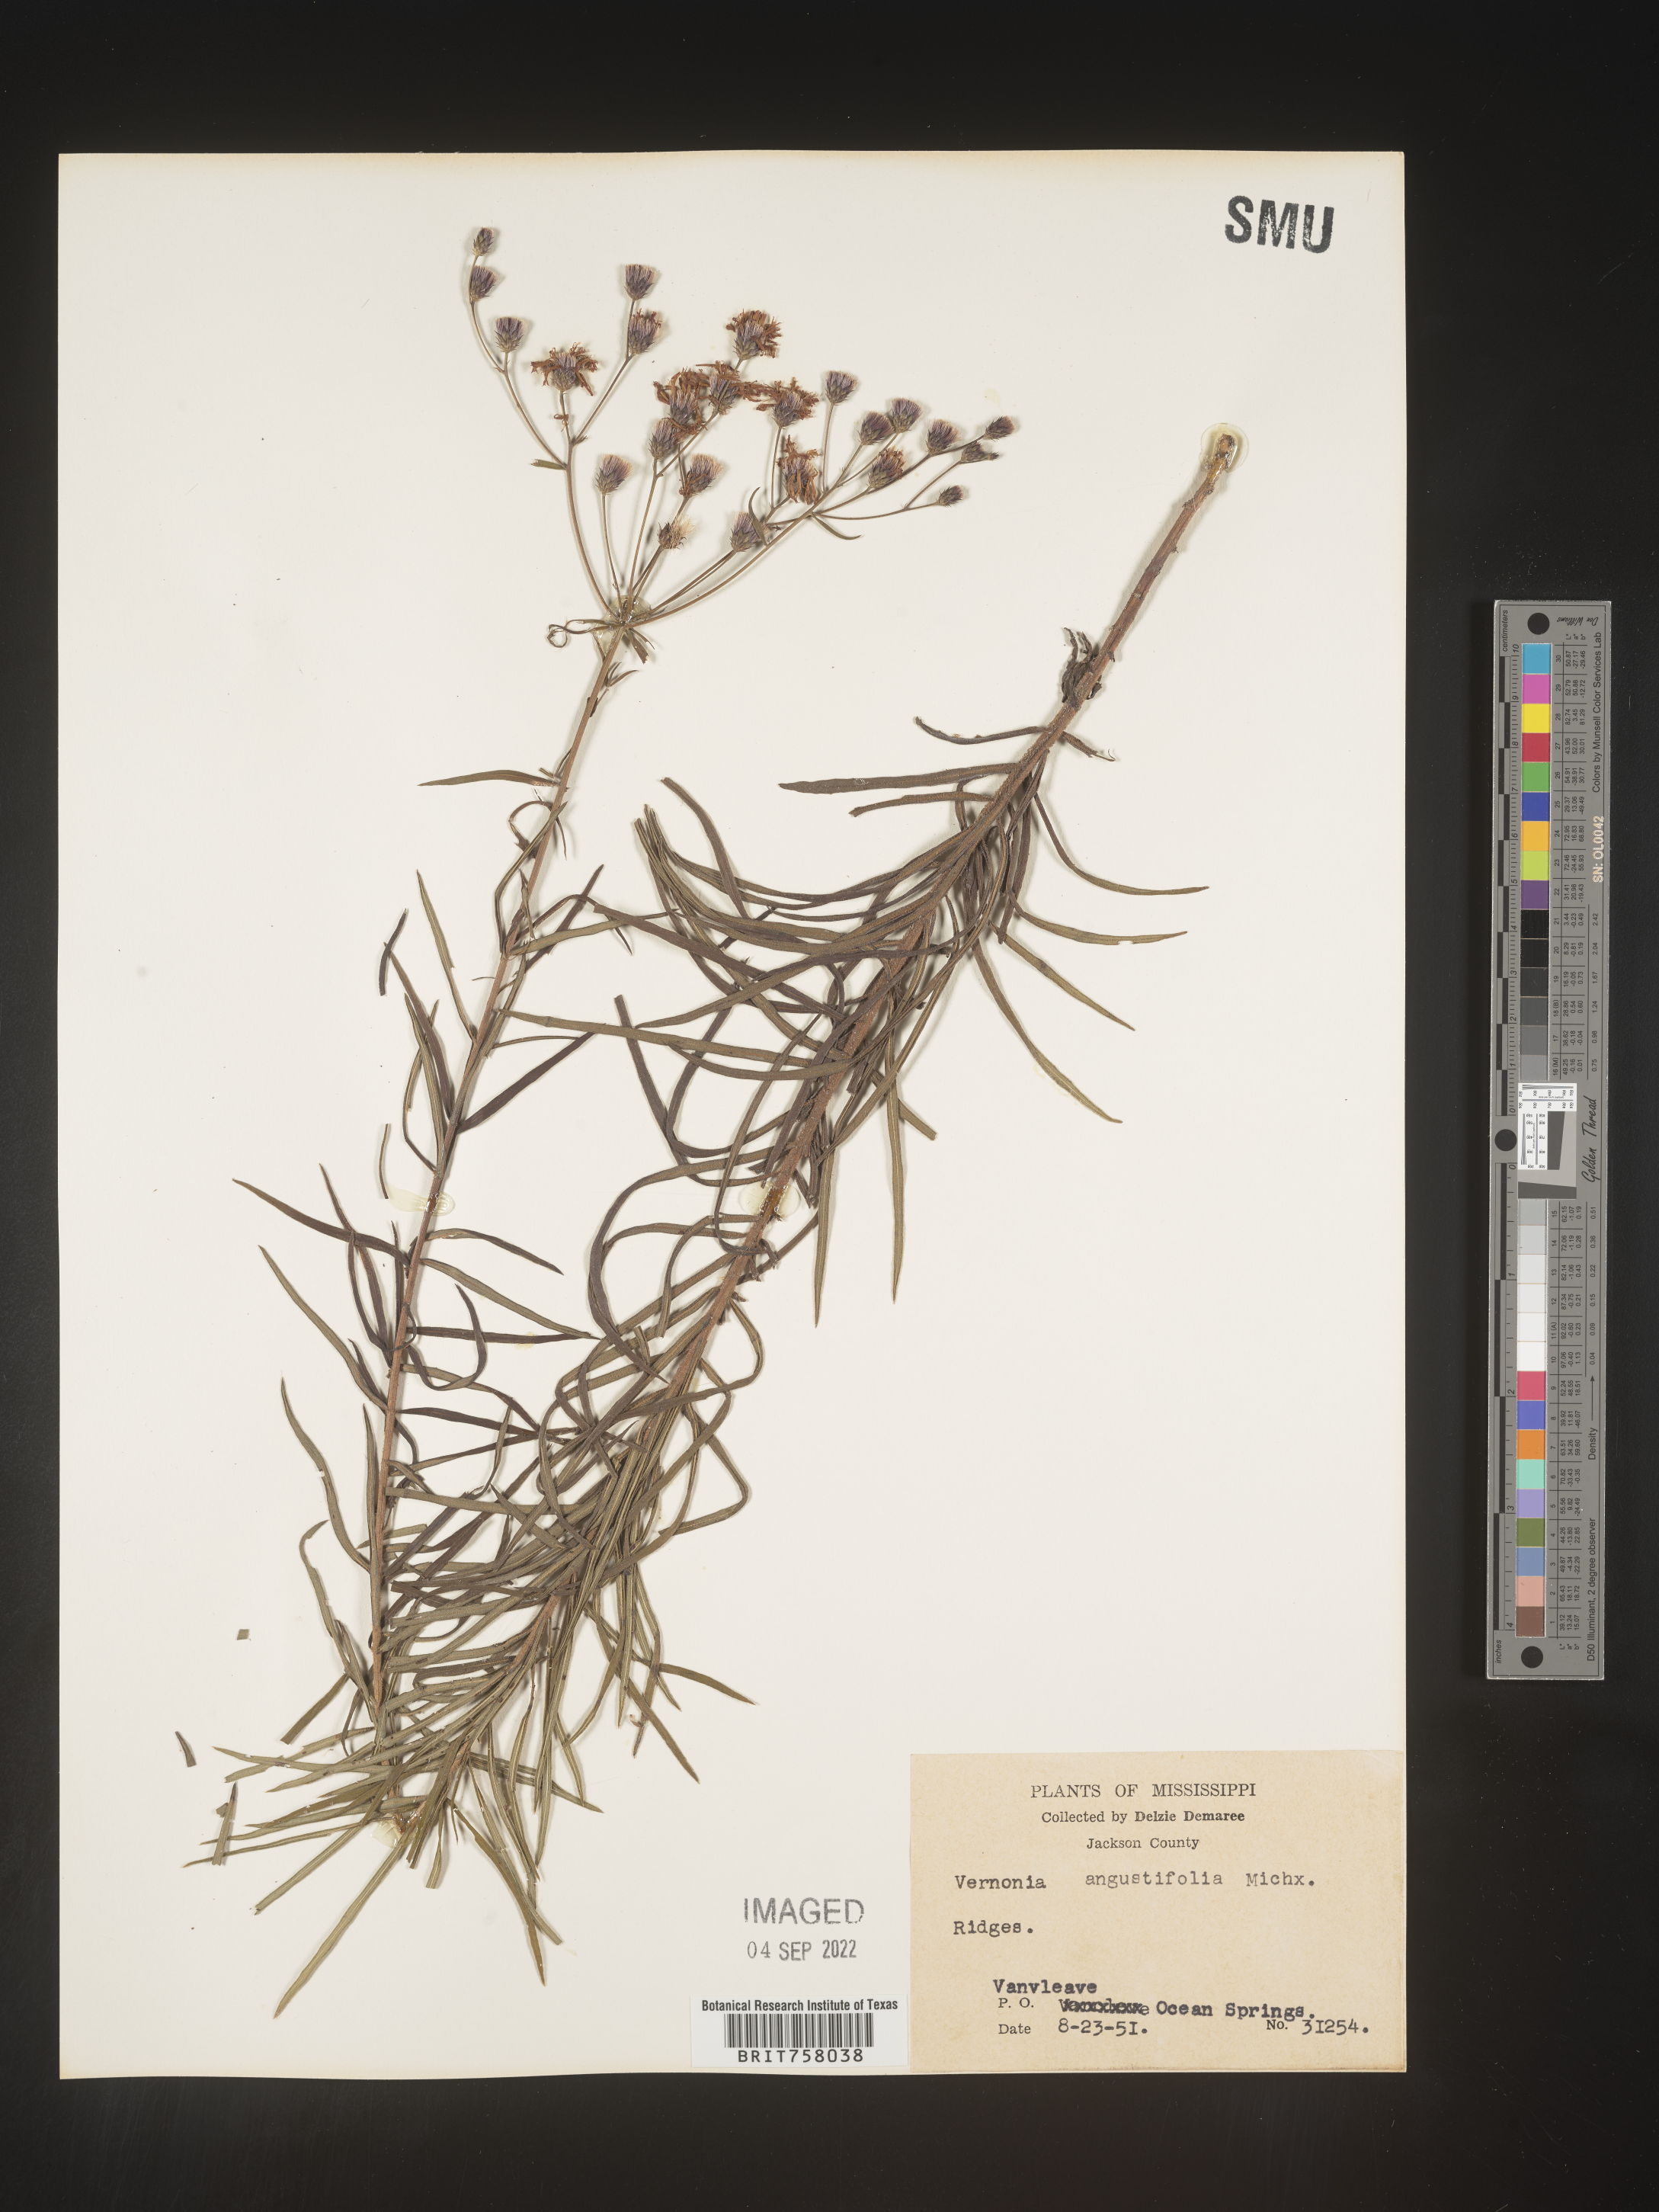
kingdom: Plantae
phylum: Tracheophyta
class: Magnoliopsida
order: Asterales
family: Asteraceae
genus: Vernonia
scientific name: Vernonia angustifolia
